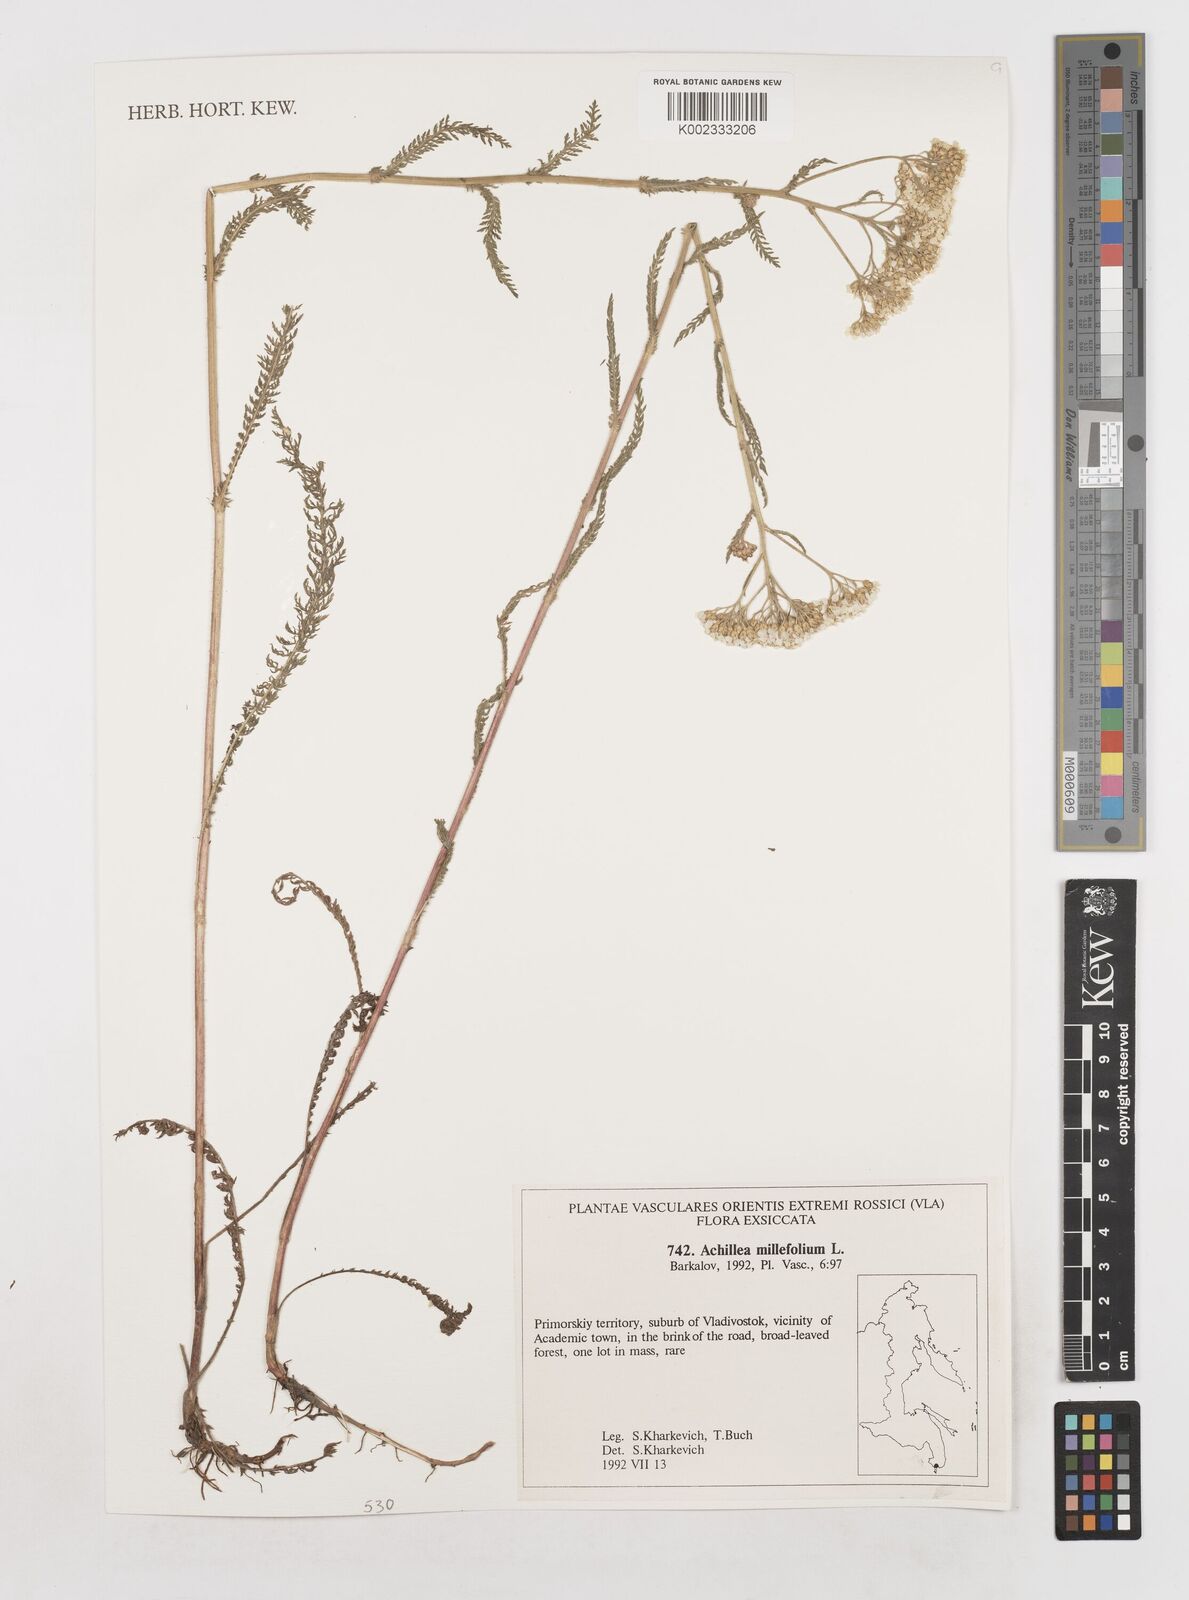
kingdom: Plantae
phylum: Tracheophyta
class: Magnoliopsida
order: Asterales
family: Asteraceae
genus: Achillea
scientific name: Achillea millefolium
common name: Yarrow
